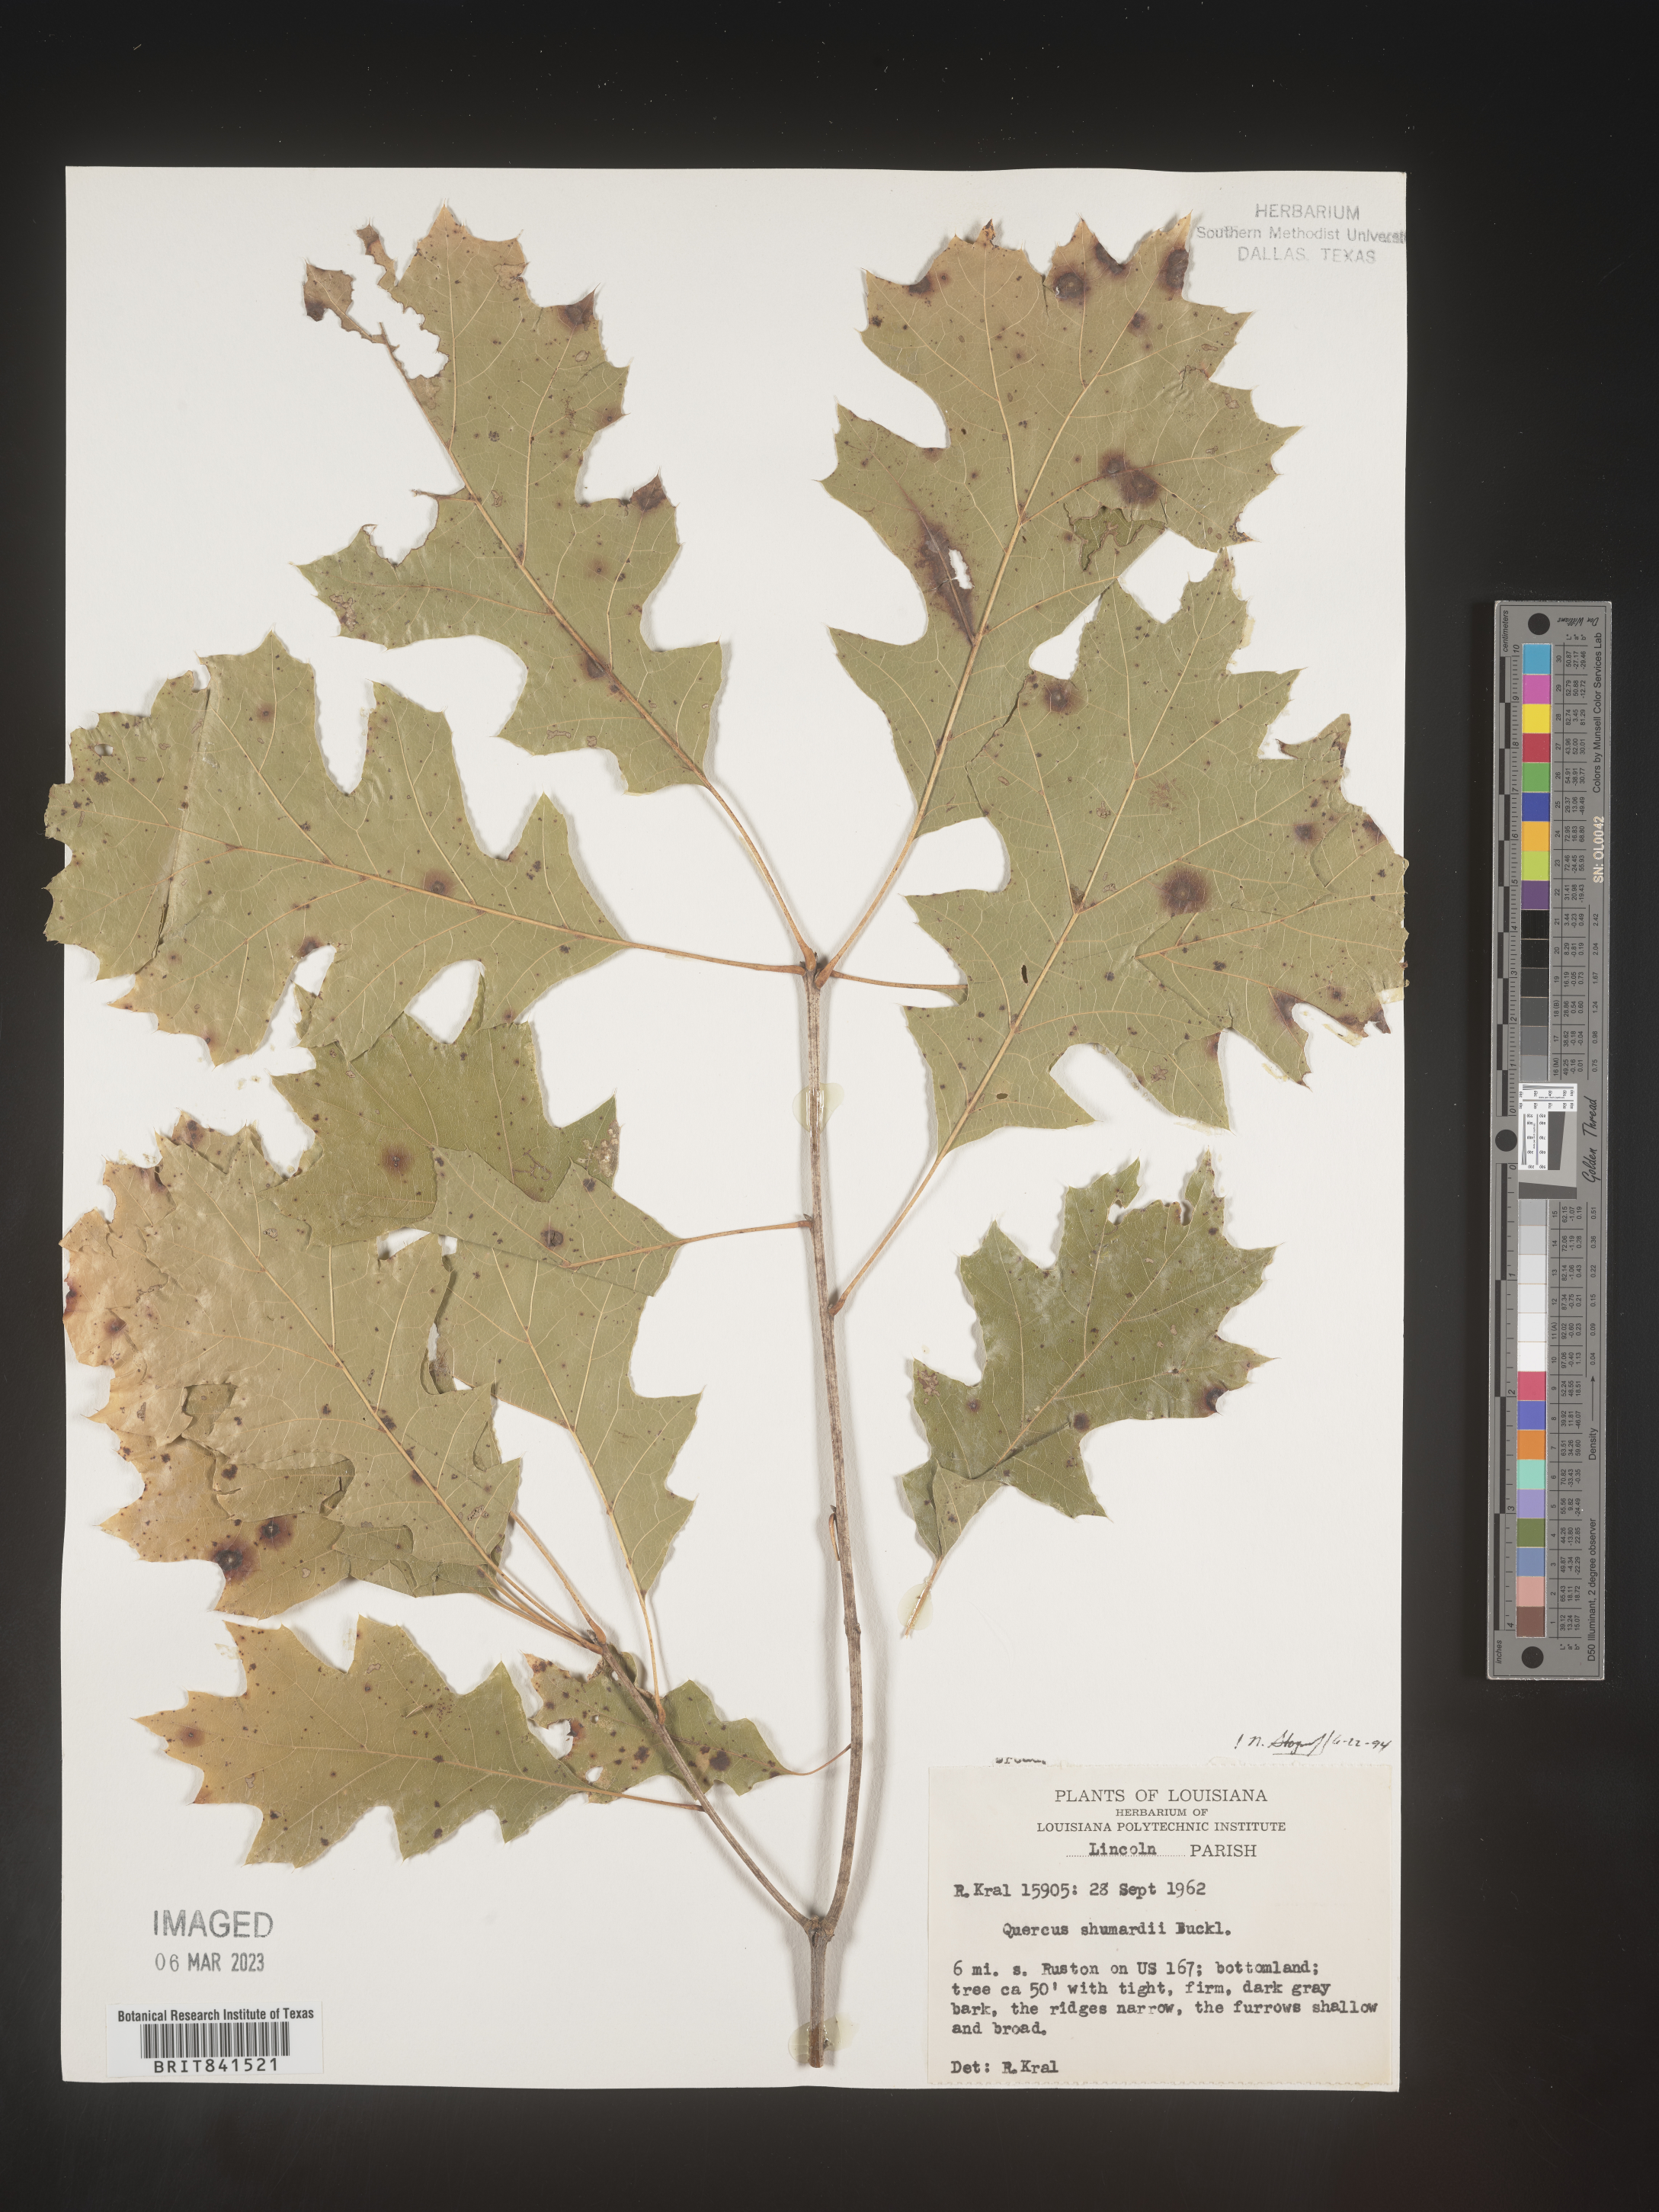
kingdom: Plantae
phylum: Tracheophyta
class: Magnoliopsida
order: Fagales
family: Fagaceae
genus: Quercus
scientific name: Quercus shumardii
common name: Shumard oak
